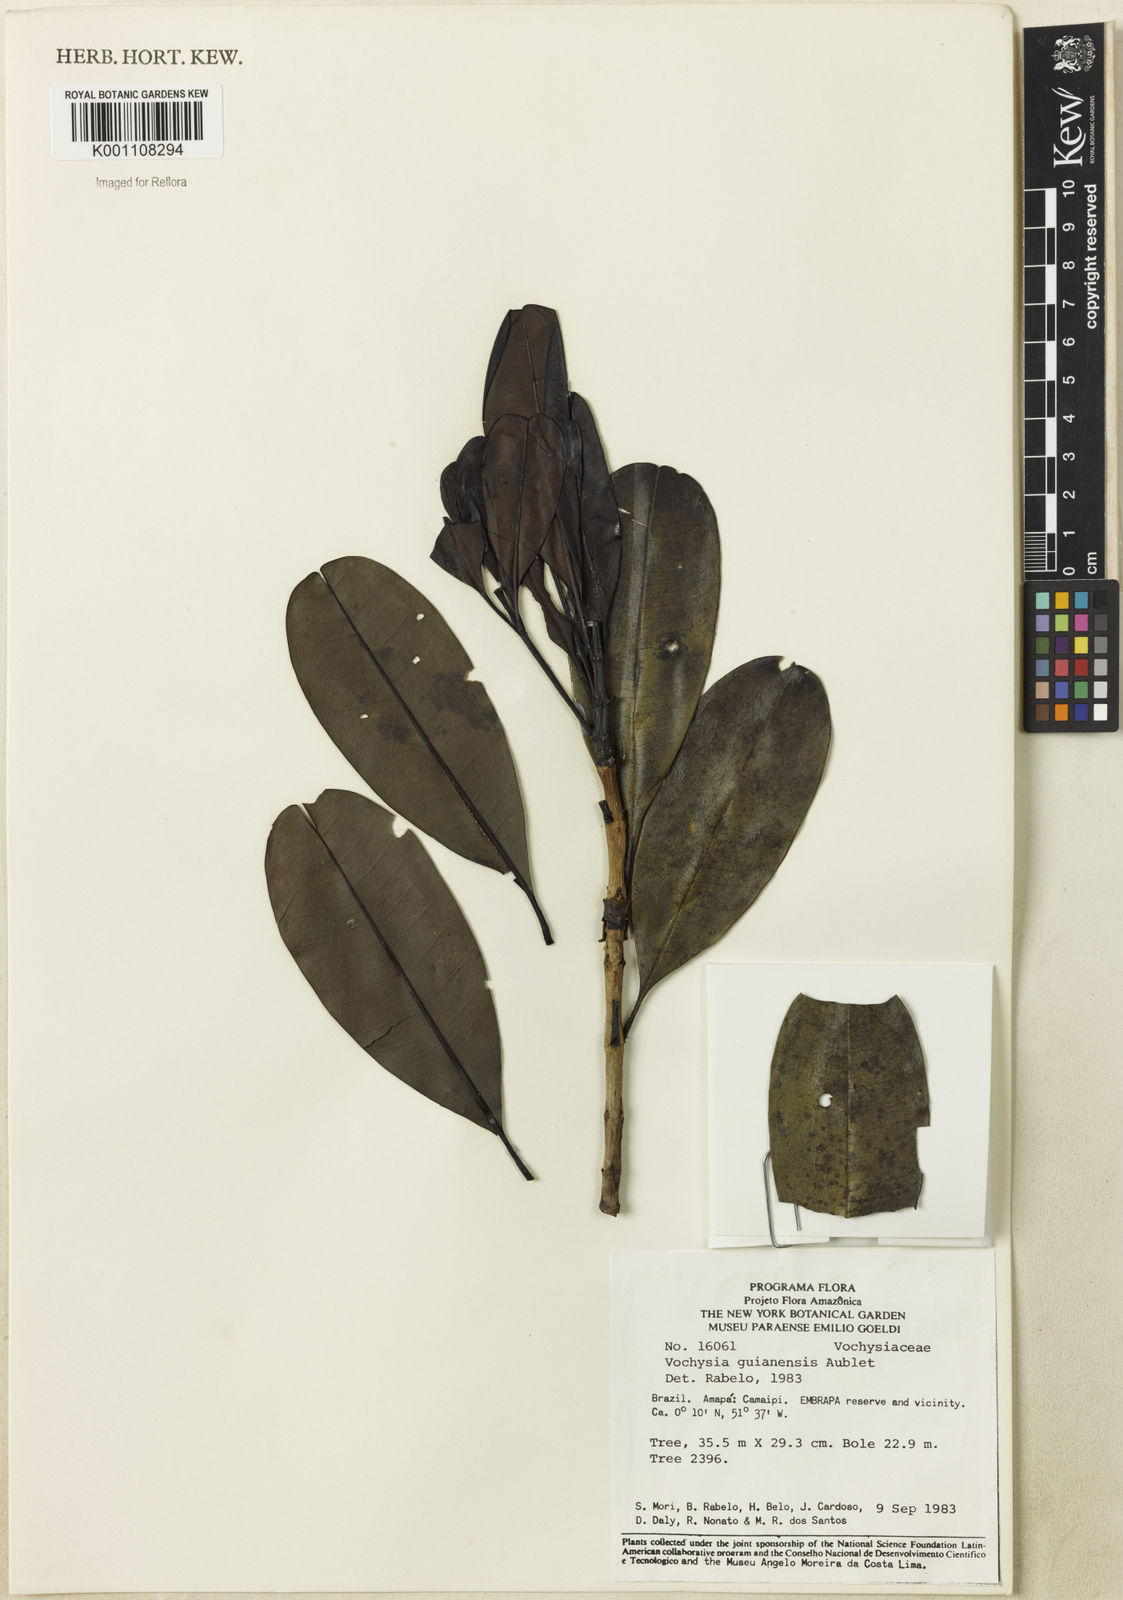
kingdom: Plantae
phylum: Tracheophyta
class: Magnoliopsida
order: Myrtales
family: Vochysiaceae
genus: Vochysia
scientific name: Vochysia grandis
